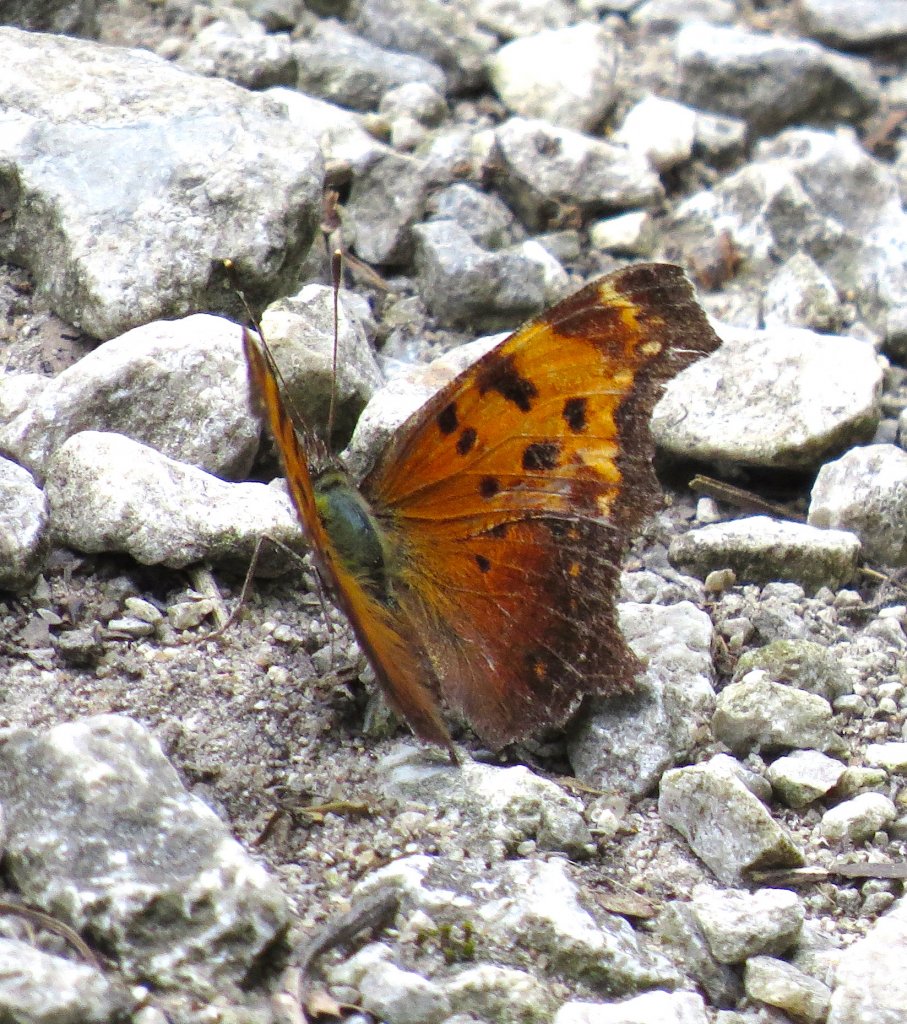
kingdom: Animalia
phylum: Arthropoda
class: Insecta
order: Lepidoptera
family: Nymphalidae
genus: Polygonia
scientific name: Polygonia progne
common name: Gray Comma
